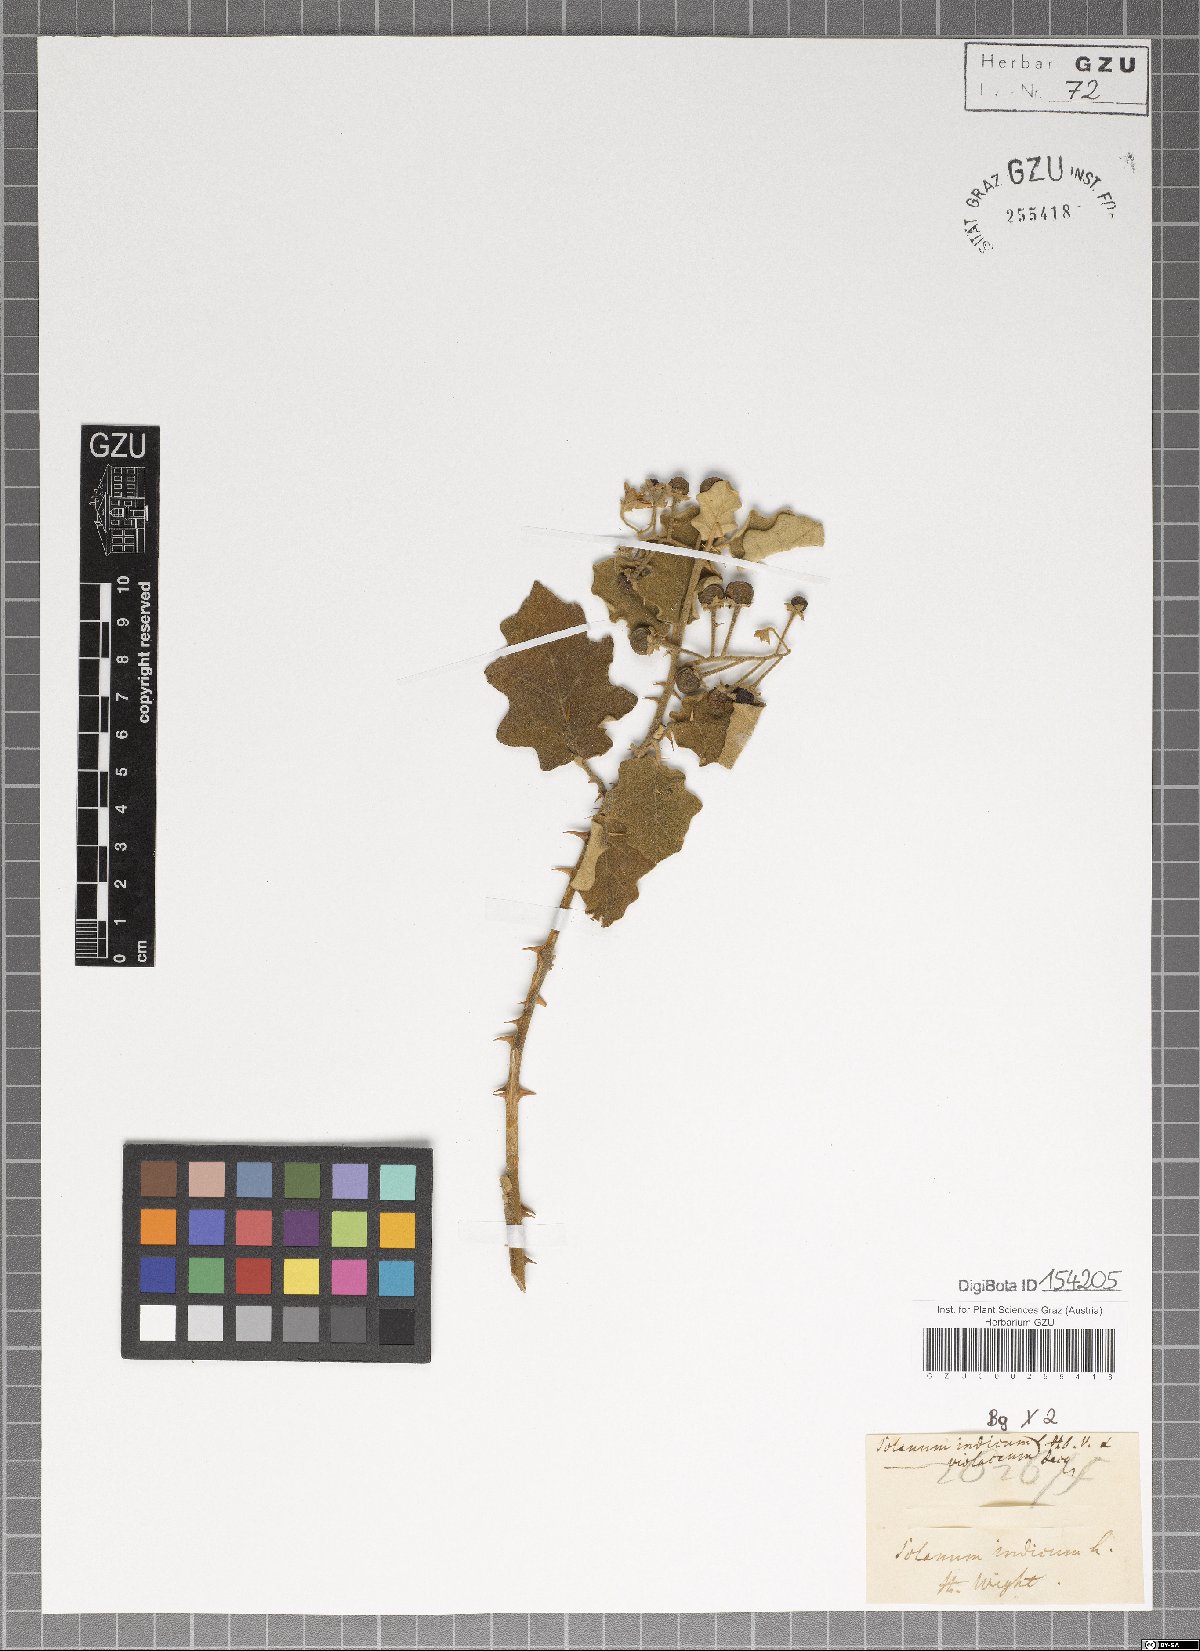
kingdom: Plantae
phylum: Tracheophyta
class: Magnoliopsida
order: Solanales
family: Solanaceae
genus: Solanum
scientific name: Solanum violaceum
